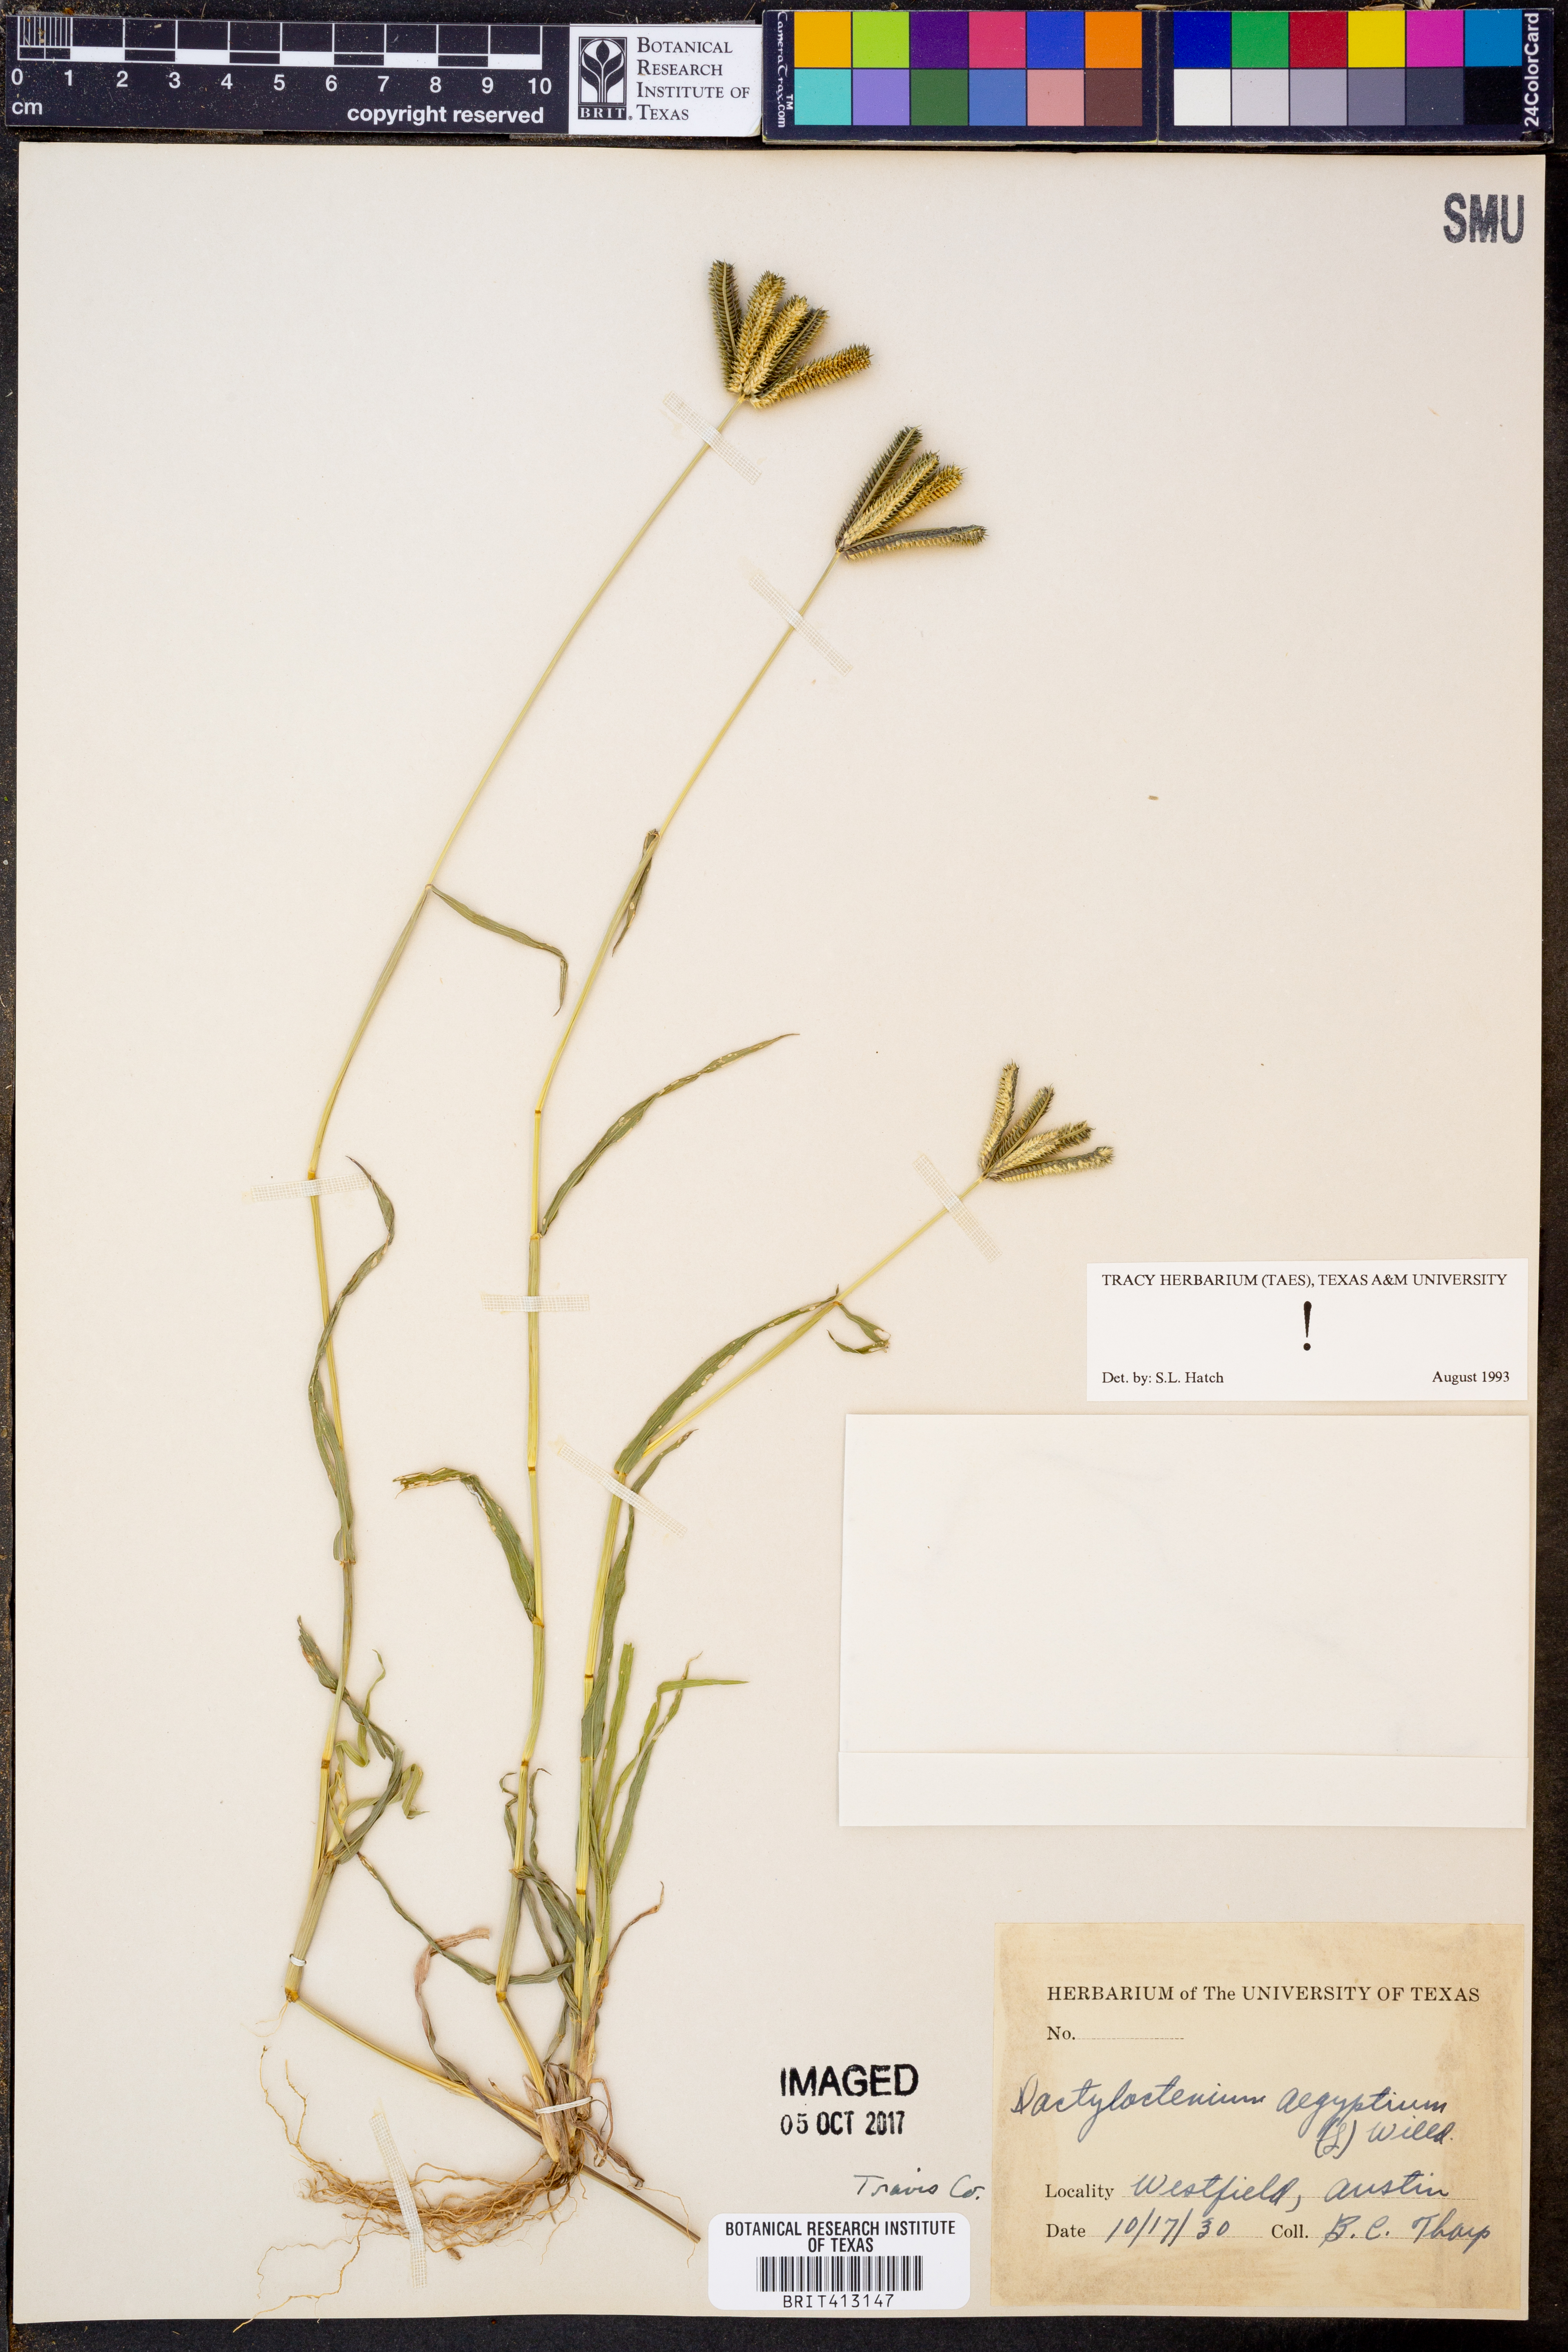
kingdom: Plantae
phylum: Tracheophyta
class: Liliopsida
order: Poales
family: Poaceae
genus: Dactyloctenium
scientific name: Dactyloctenium aegyptium
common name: Egyptian grass
